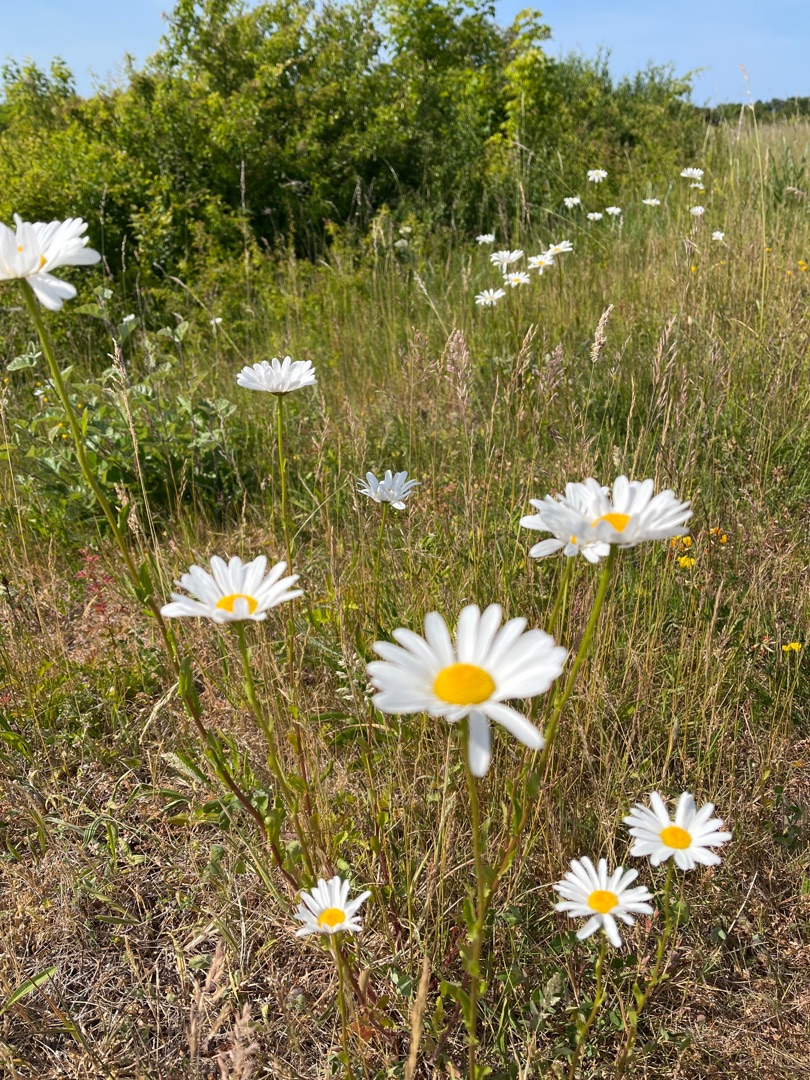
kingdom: Plantae
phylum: Tracheophyta
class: Magnoliopsida
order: Asterales
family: Asteraceae
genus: Leucanthemum
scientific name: Leucanthemum vulgare
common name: Hvid okseøje
